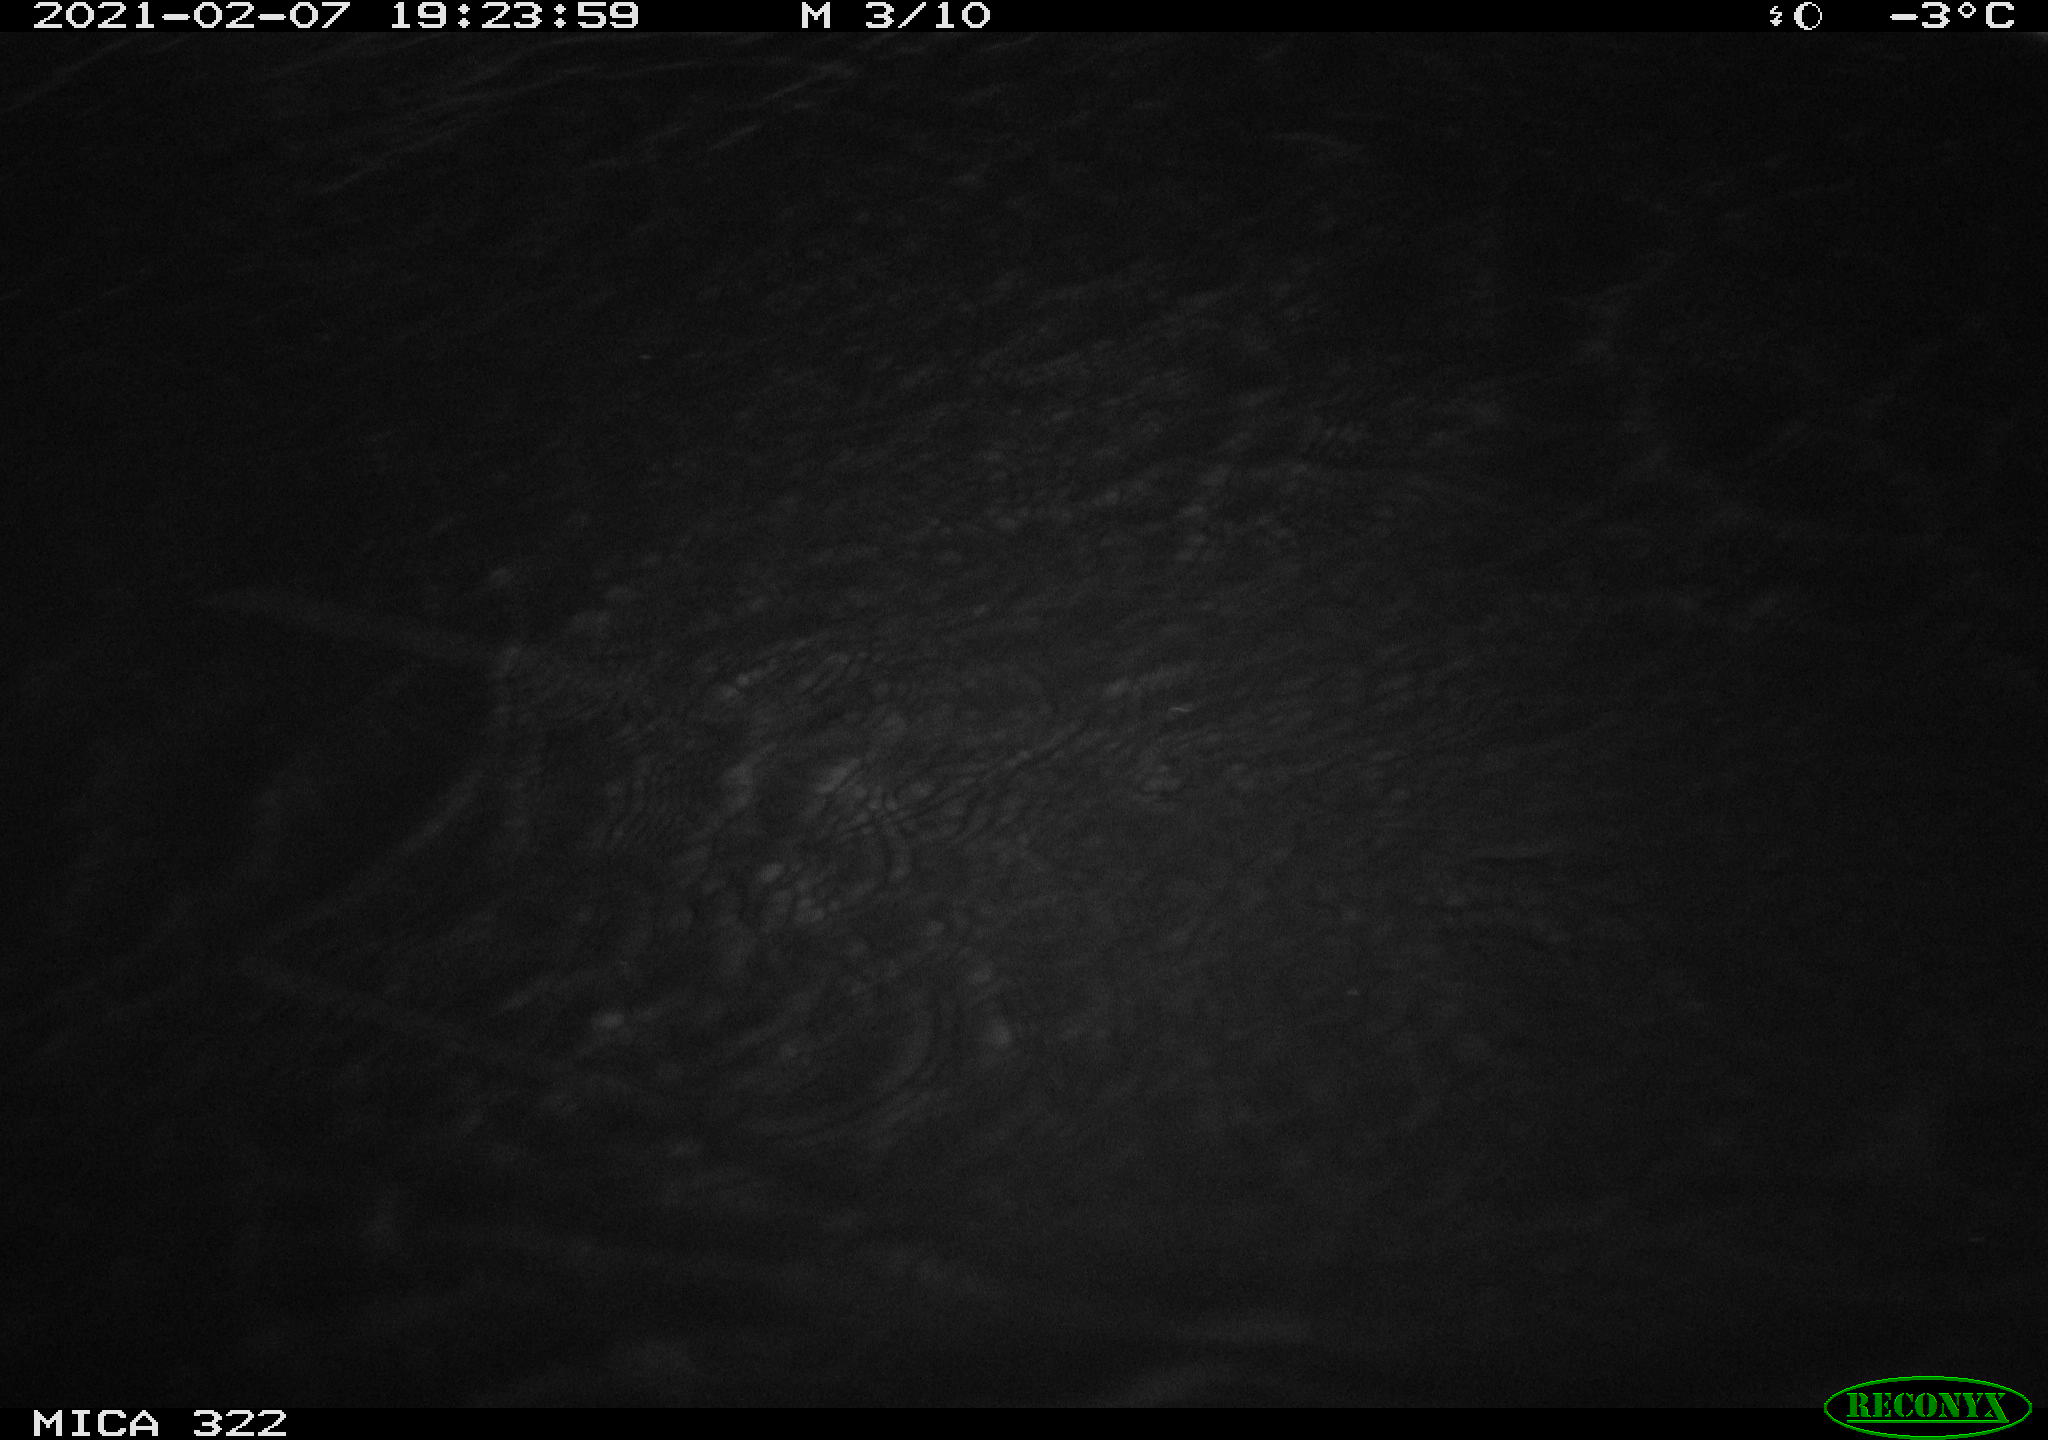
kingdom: Animalia
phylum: Chordata
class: Aves
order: Gruiformes
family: Rallidae
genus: Gallinula
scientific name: Gallinula chloropus
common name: Common moorhen
